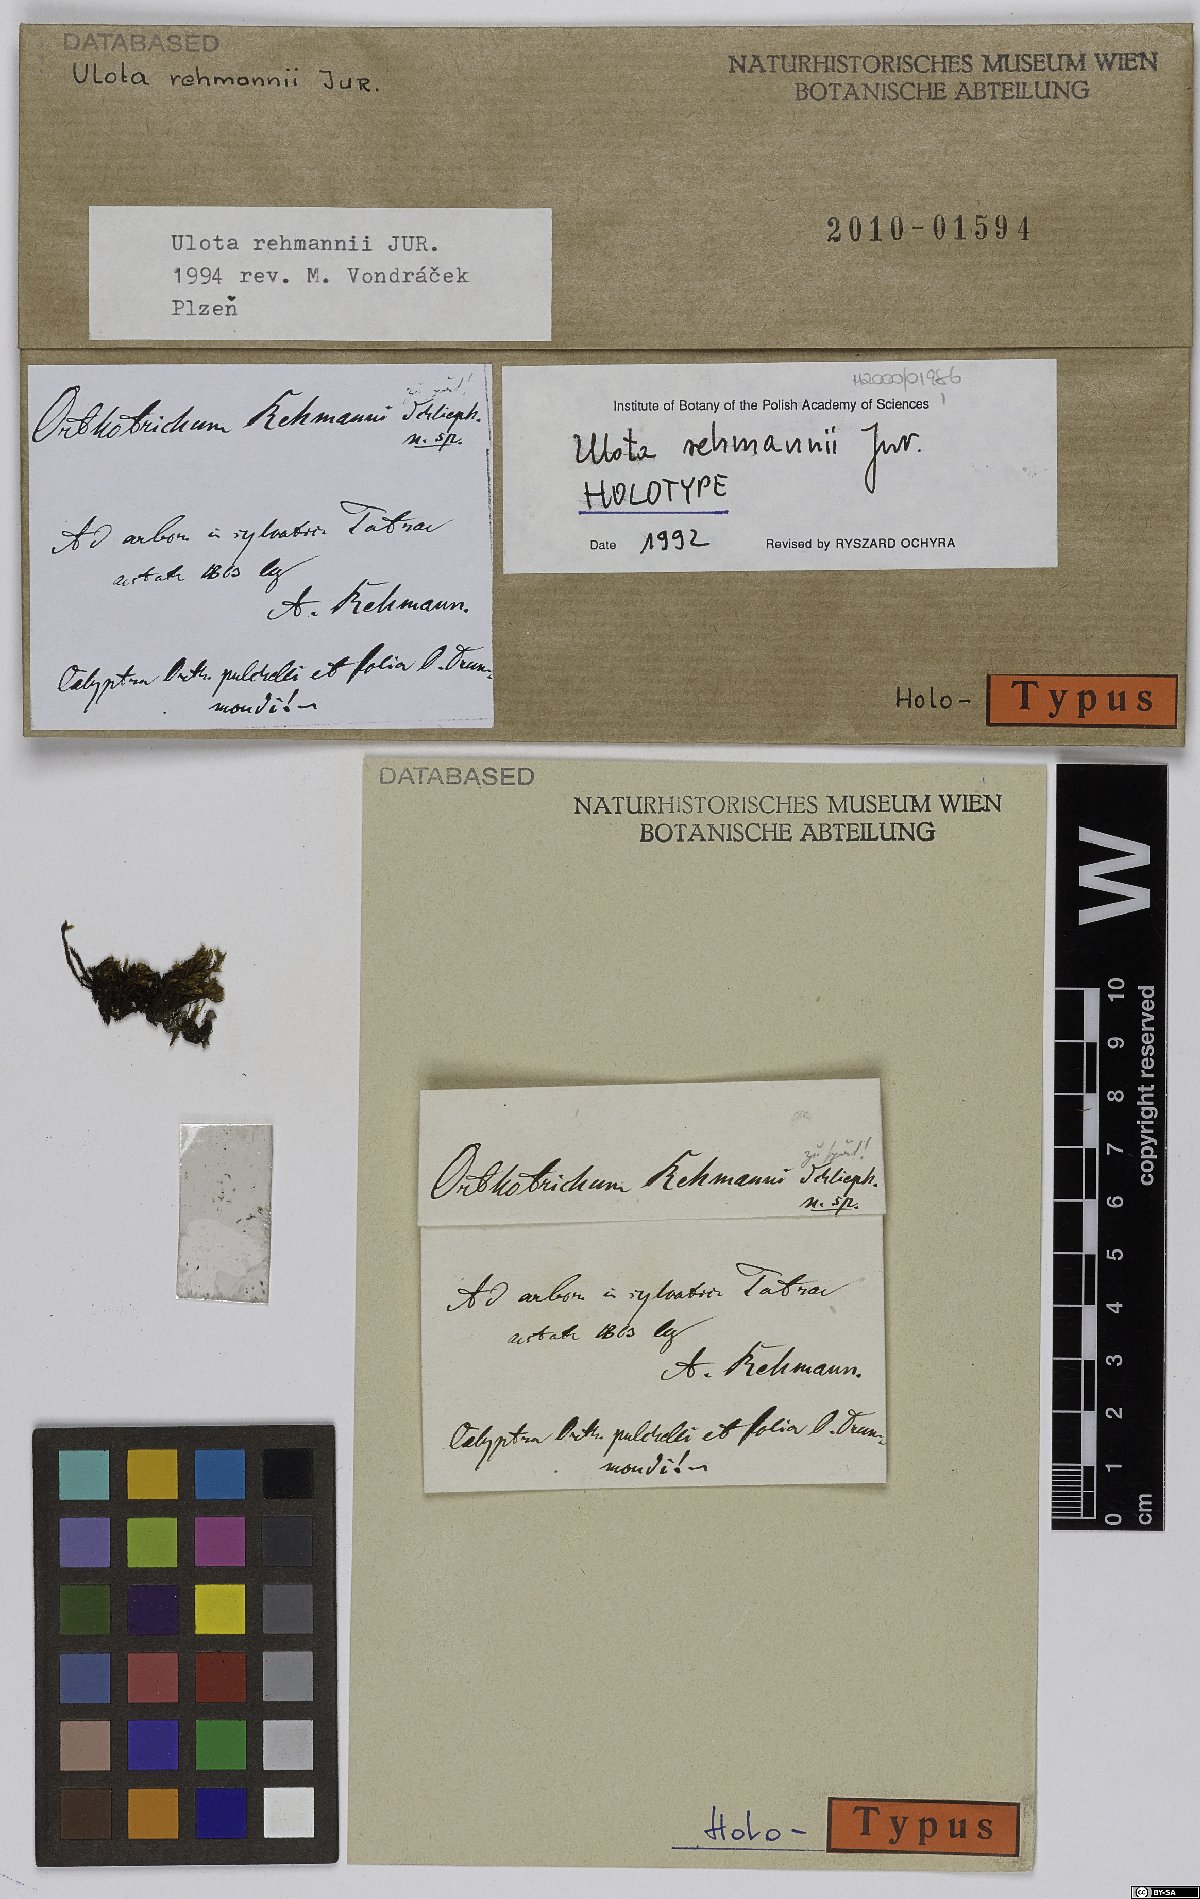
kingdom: Plantae
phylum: Bryophyta
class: Bryopsida
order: Orthotrichales
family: Orthotrichaceae
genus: Ulota
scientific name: Ulota rehmannii
